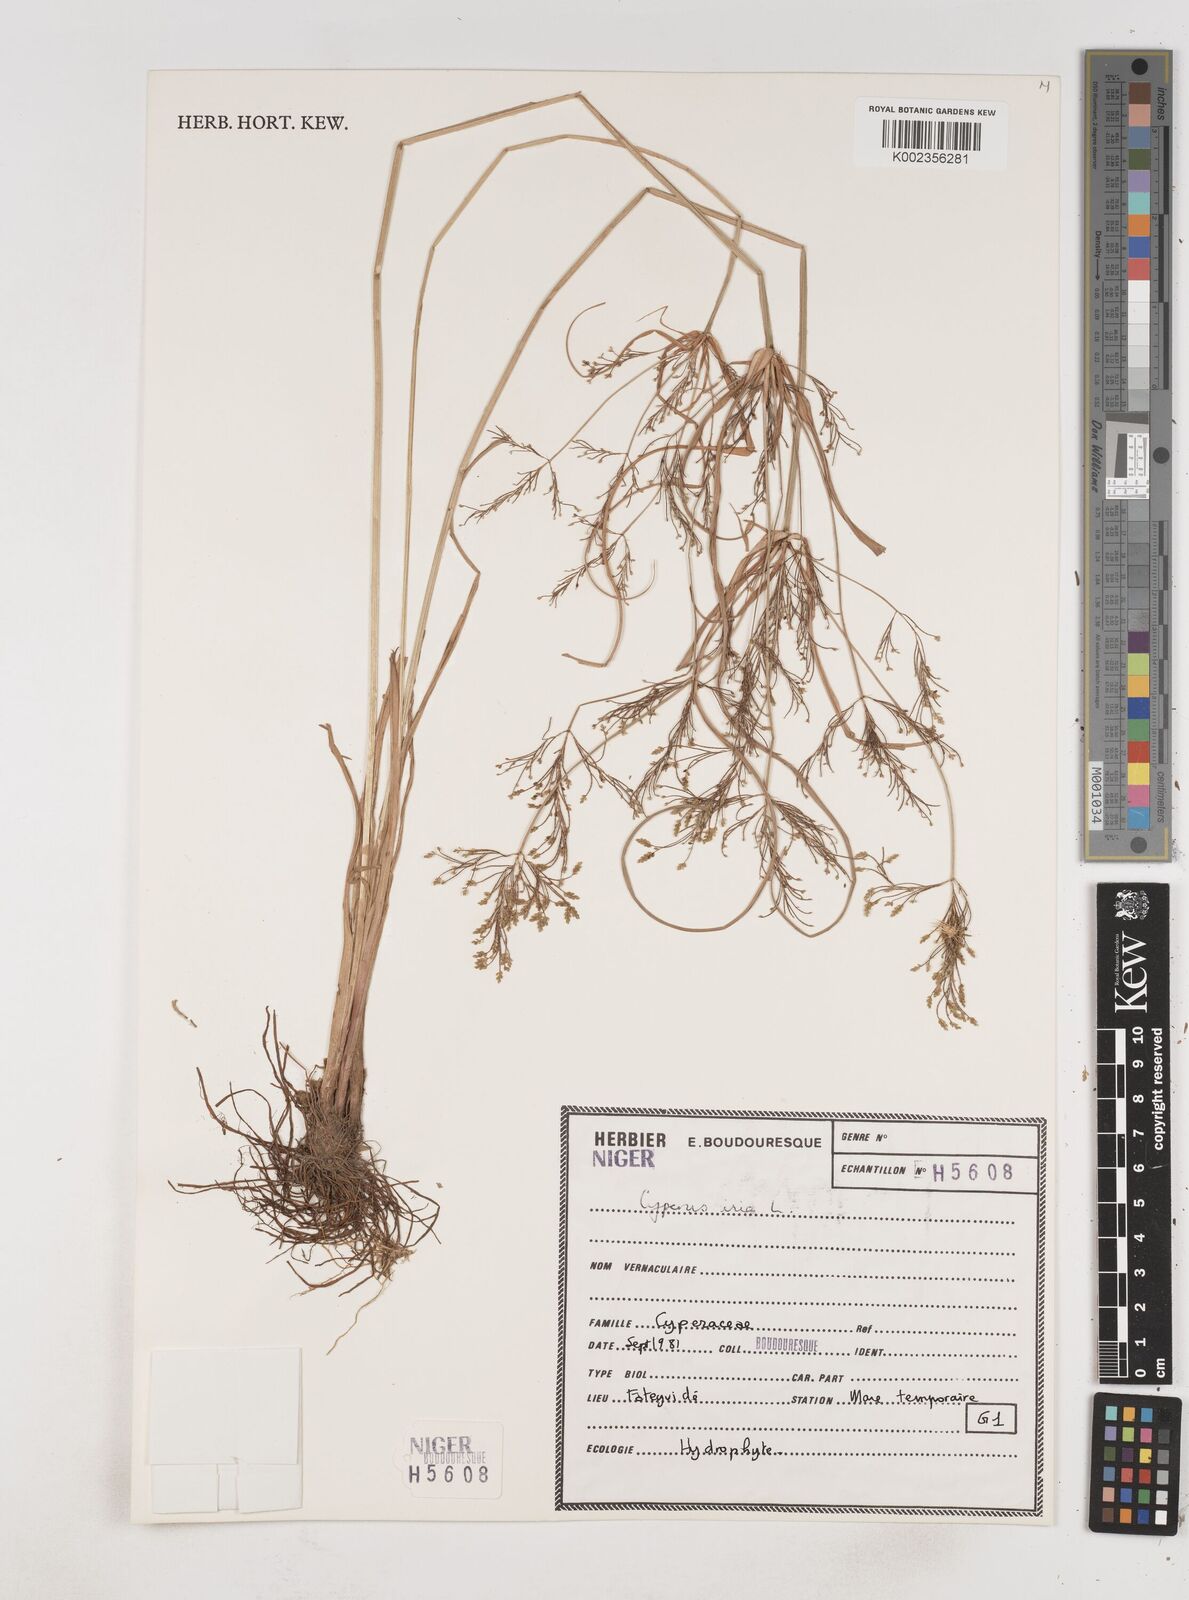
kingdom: Plantae
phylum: Tracheophyta
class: Liliopsida
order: Poales
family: Cyperaceae
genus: Cyperus
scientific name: Cyperus iria
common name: Ricefield flatsedge
